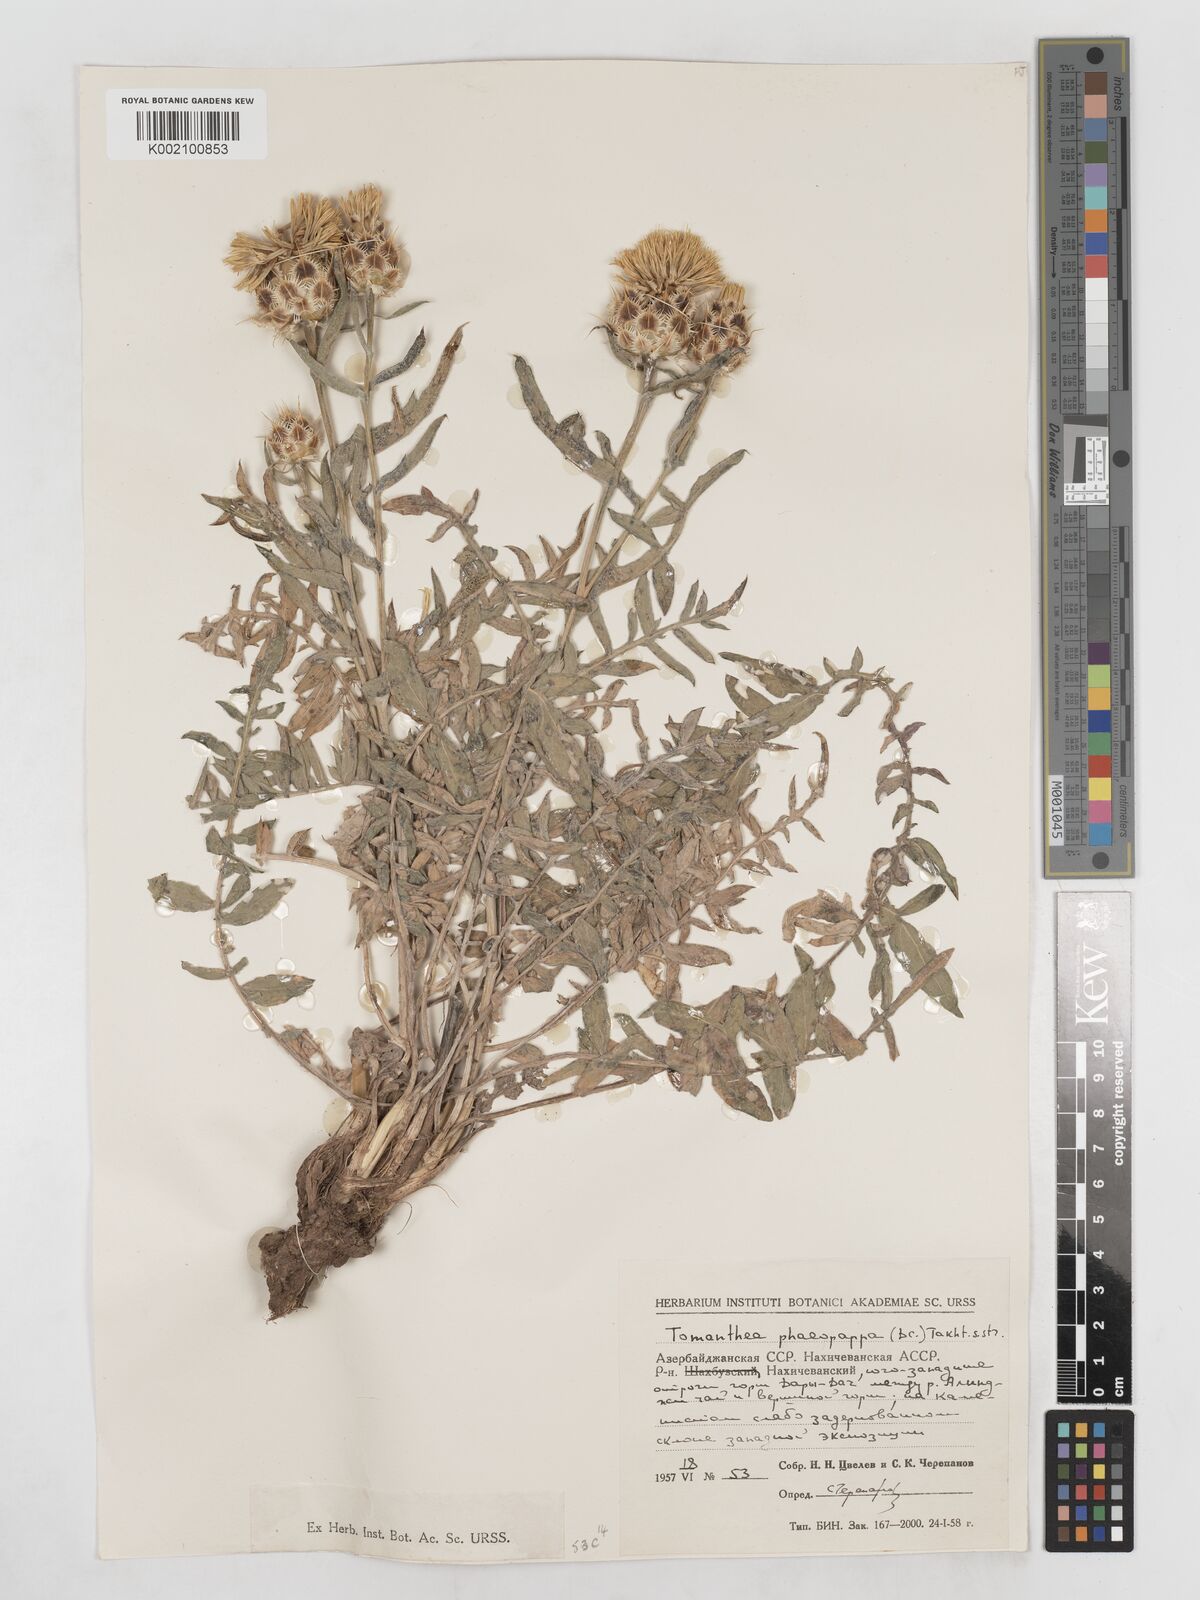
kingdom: Plantae
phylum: Tracheophyta
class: Magnoliopsida
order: Asterales
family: Asteraceae
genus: Centaurea
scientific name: Centaurea aucheri
